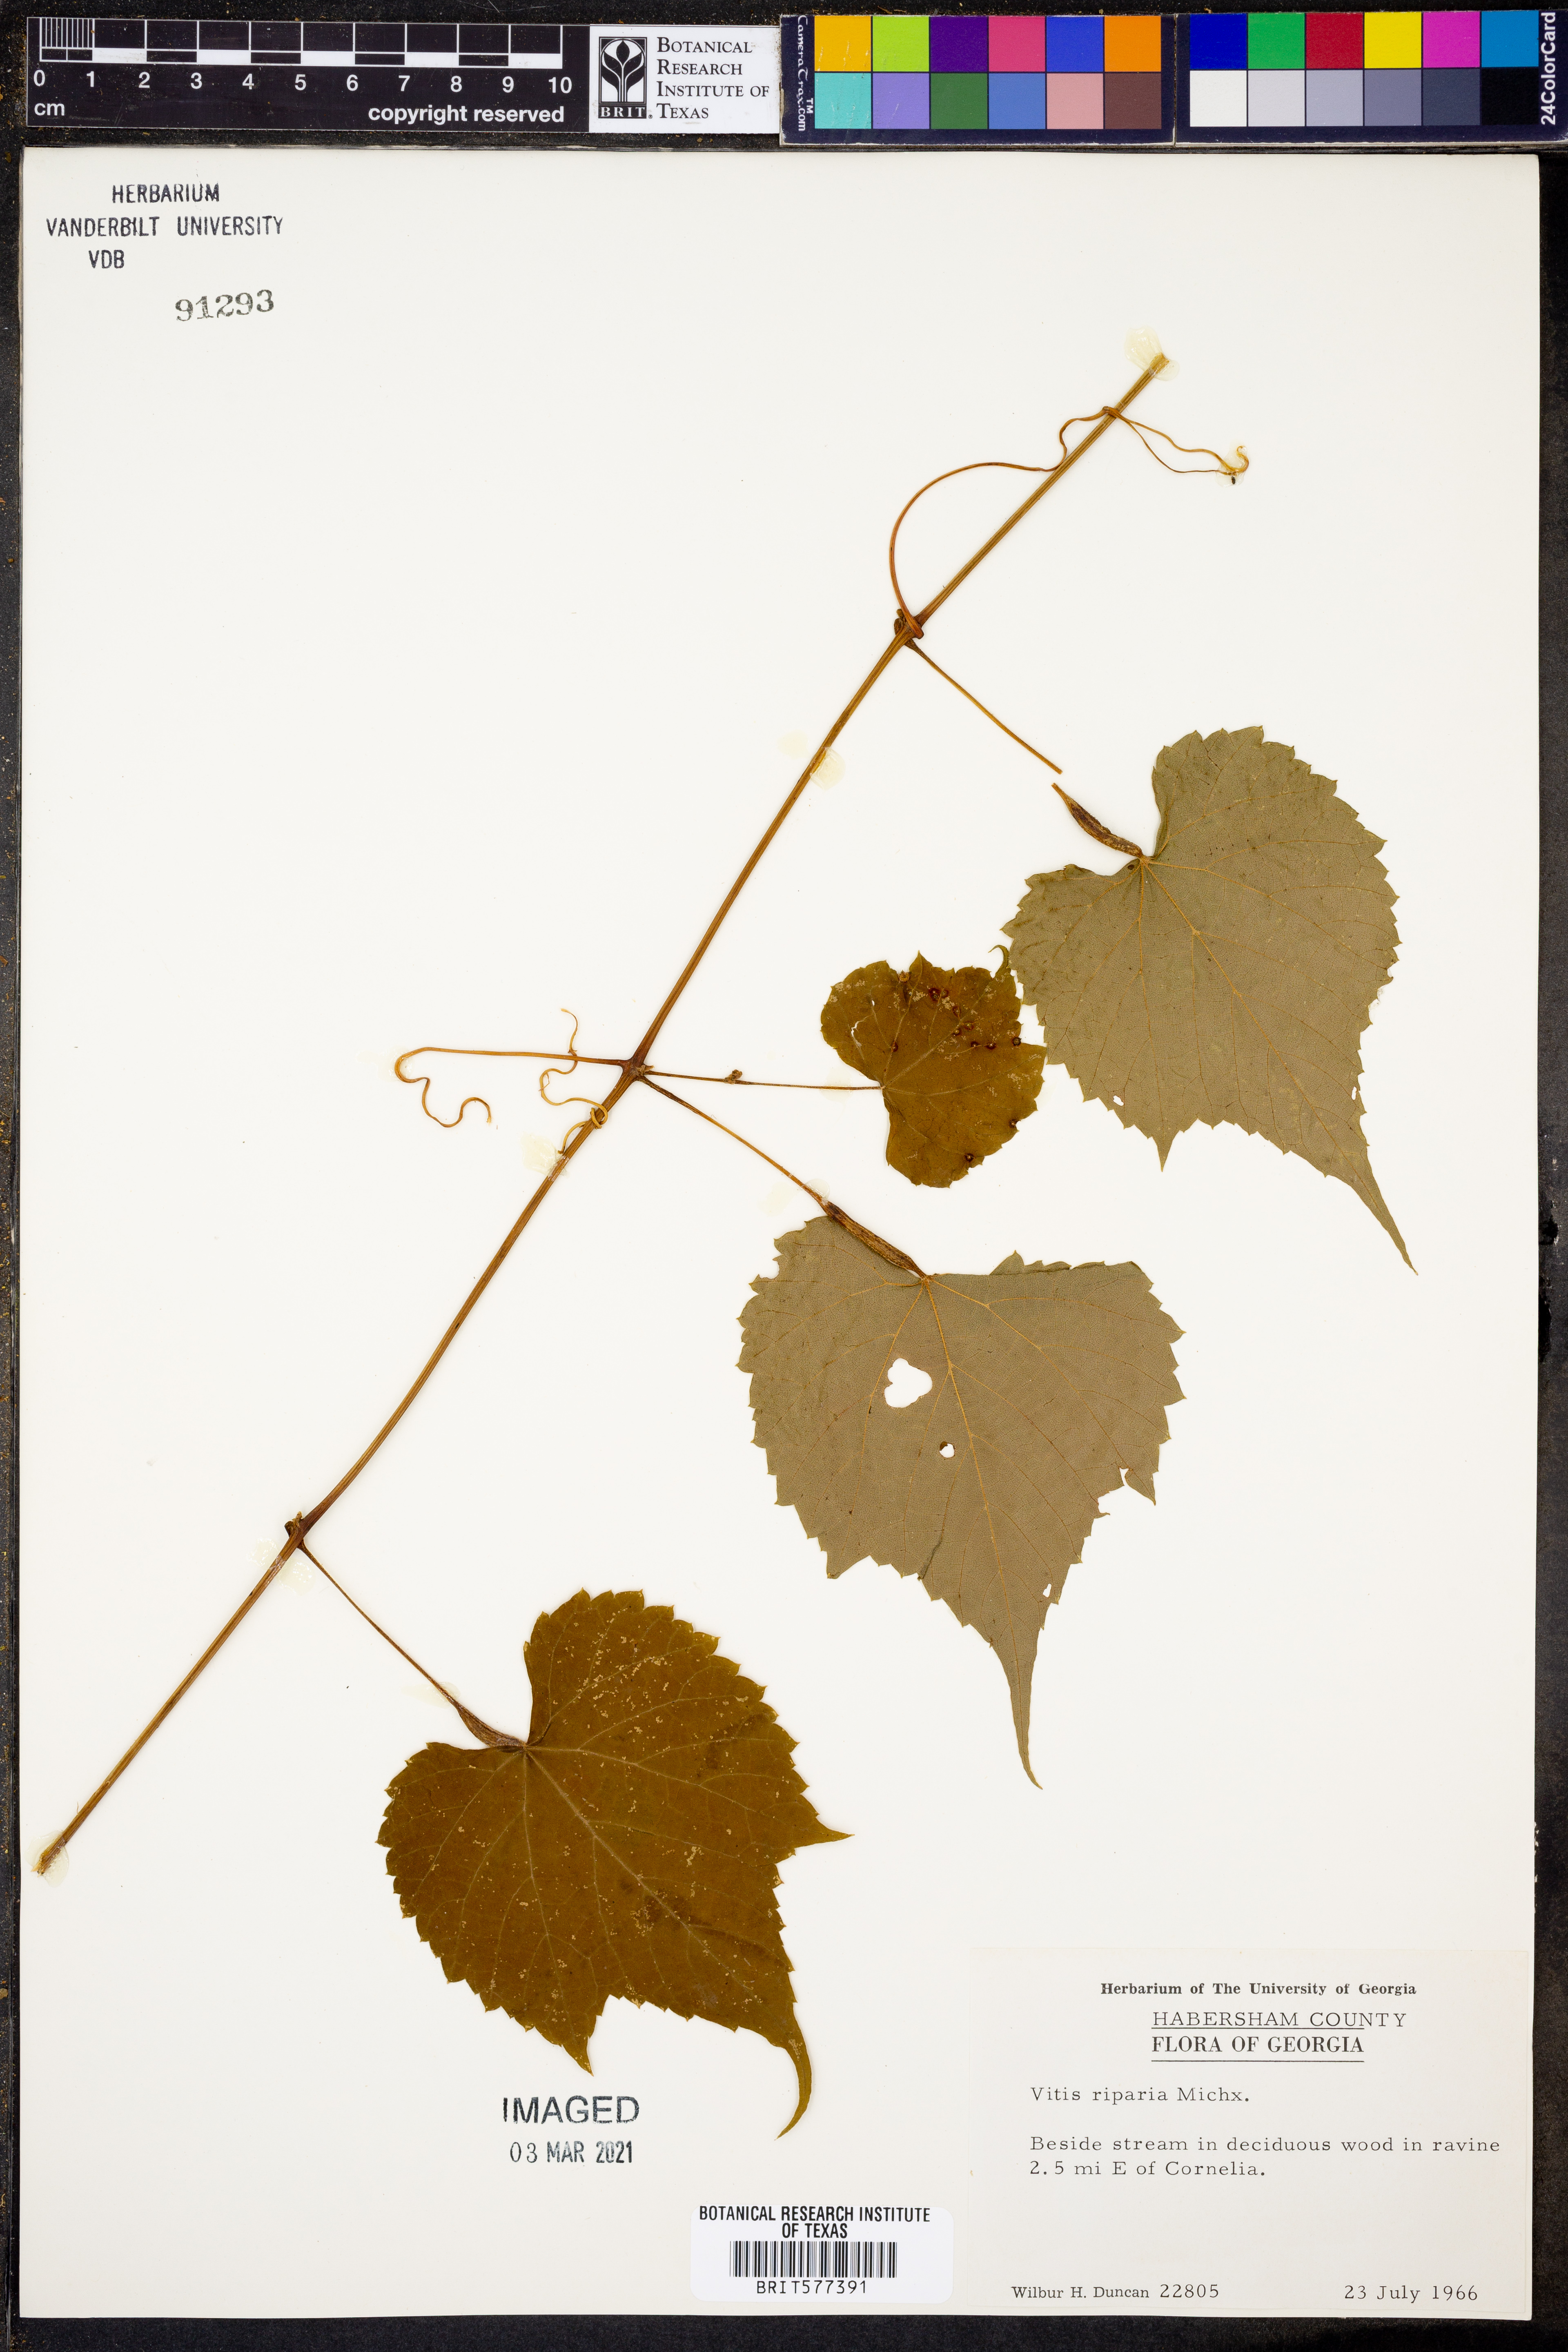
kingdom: Plantae
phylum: Tracheophyta
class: Magnoliopsida
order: Vitales
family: Vitaceae
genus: Vitis
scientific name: Vitis riparia
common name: Frost grape
